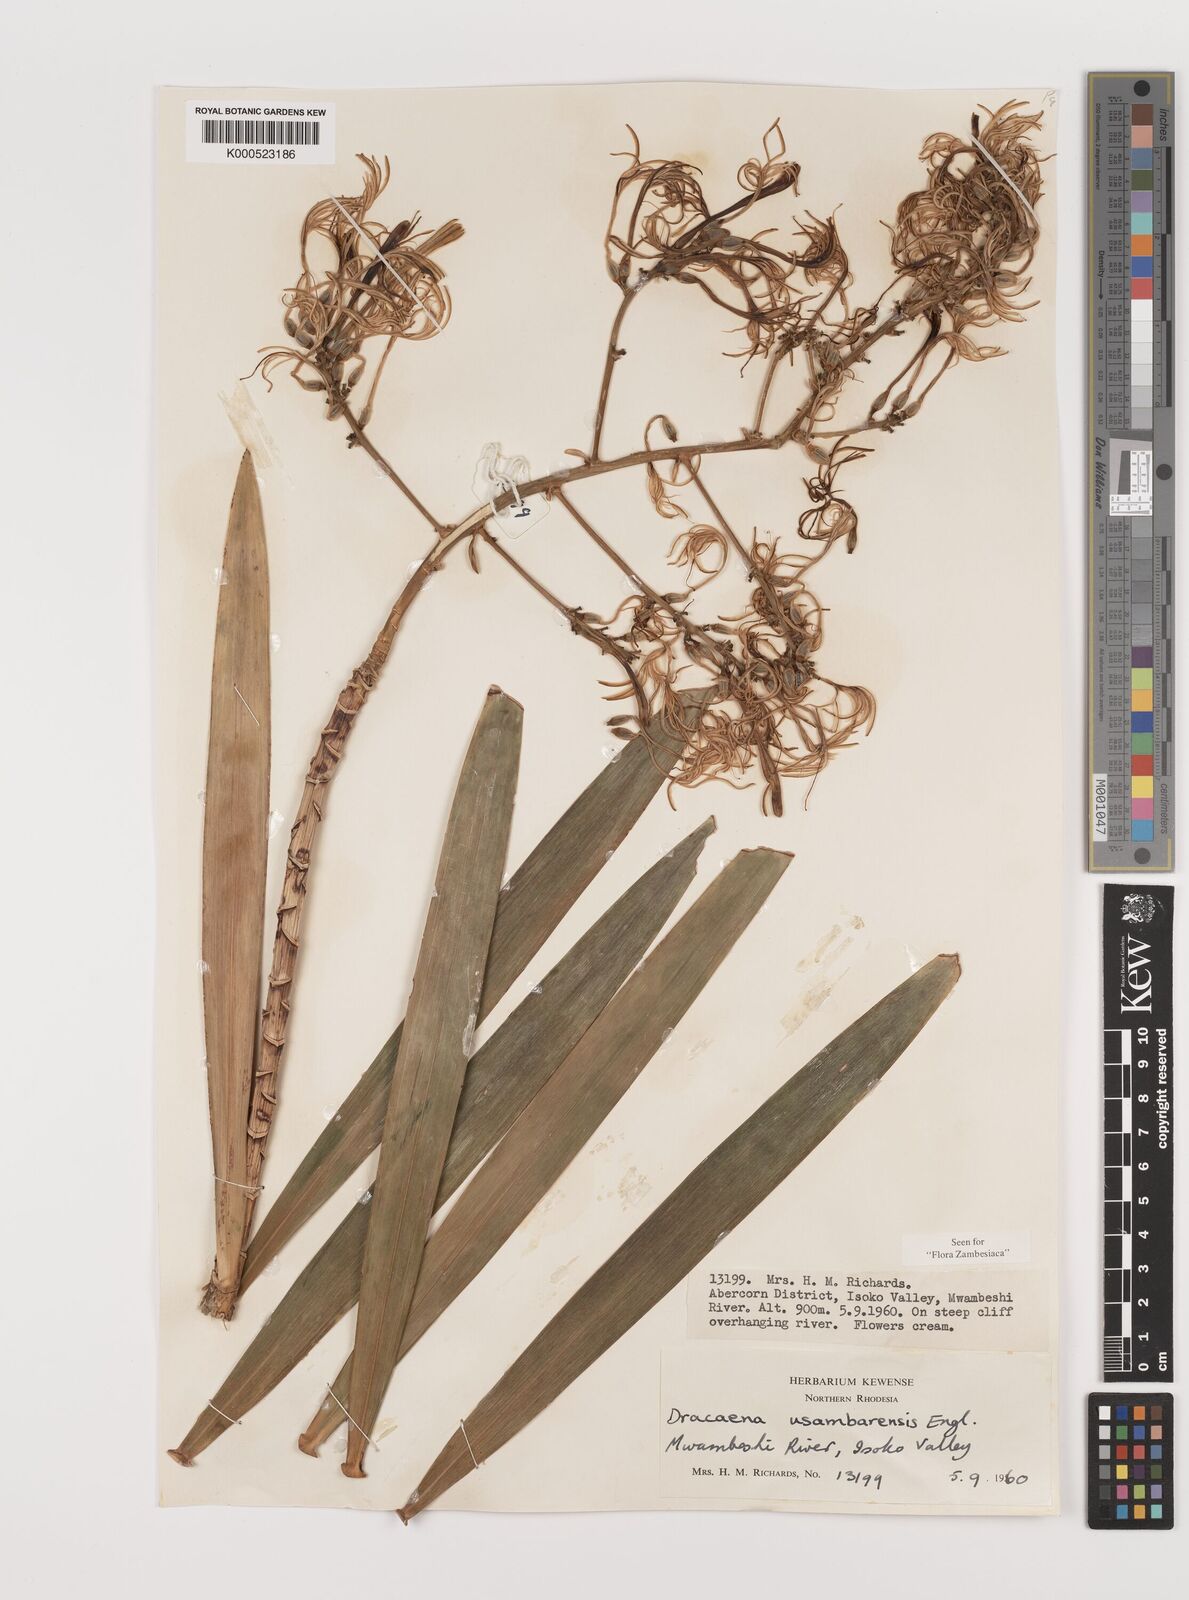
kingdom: Plantae
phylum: Tracheophyta
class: Liliopsida
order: Asparagales
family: Asparagaceae
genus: Dracaena
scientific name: Dracaena usambarensis
